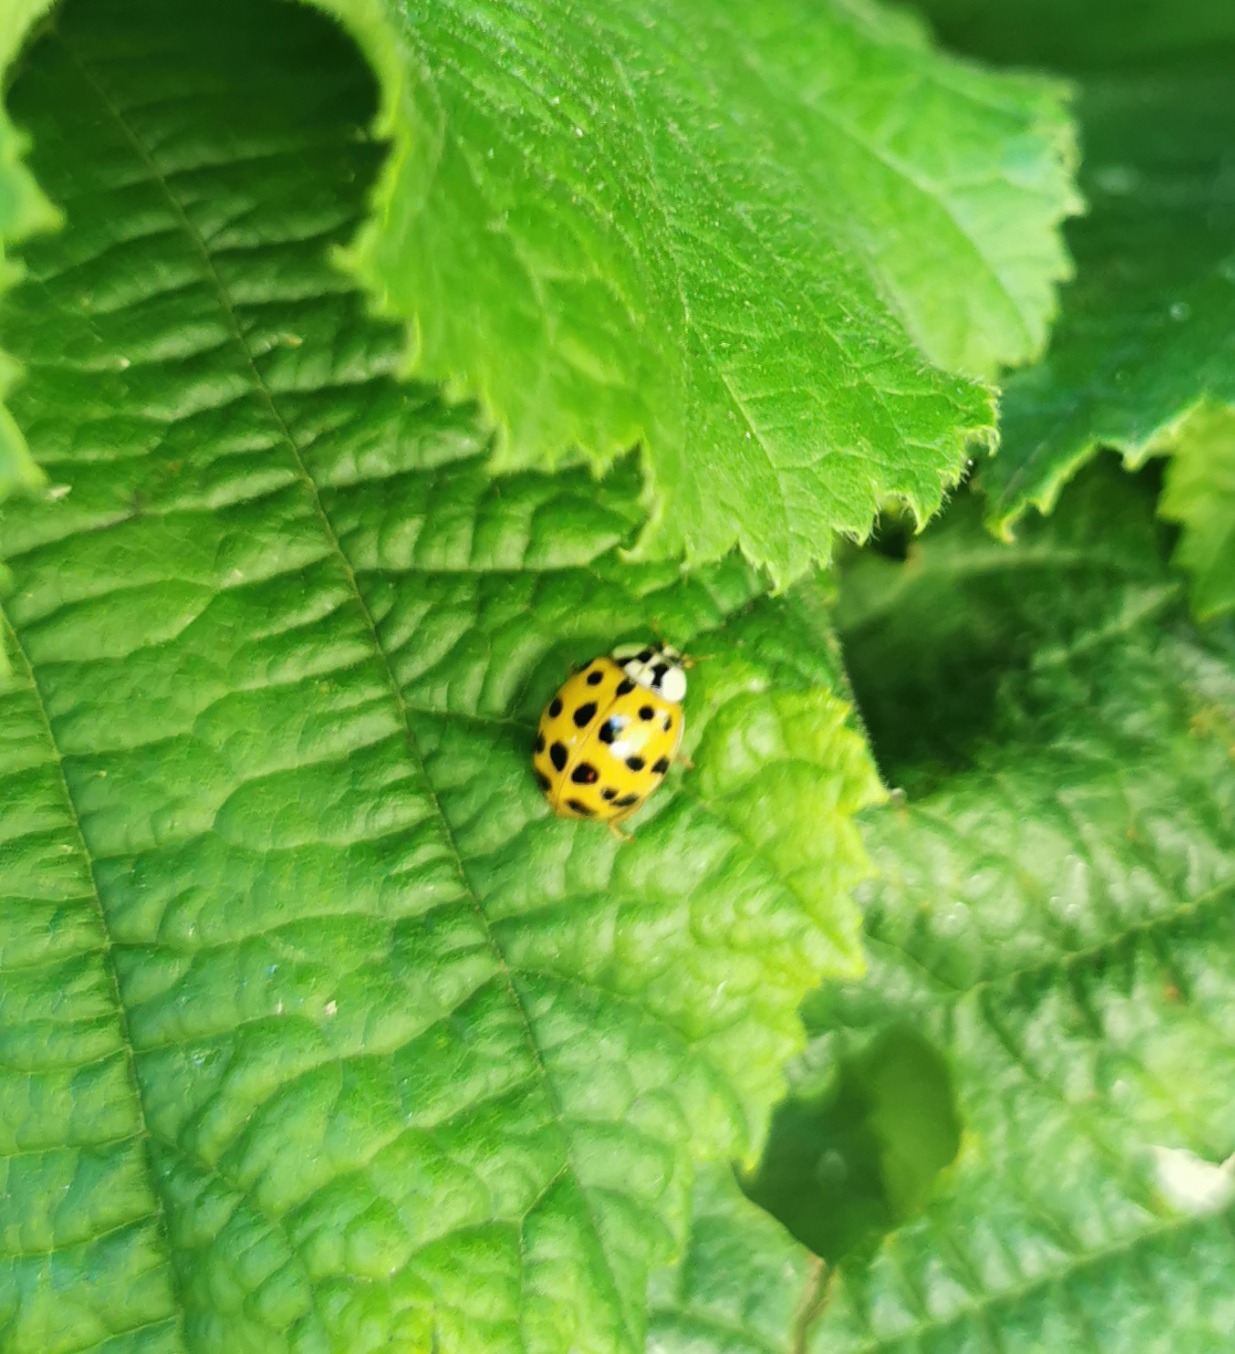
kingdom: Animalia
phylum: Arthropoda
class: Insecta
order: Coleoptera
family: Coccinellidae
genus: Harmonia
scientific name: Harmonia axyridis
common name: Harlekinmariehøne
